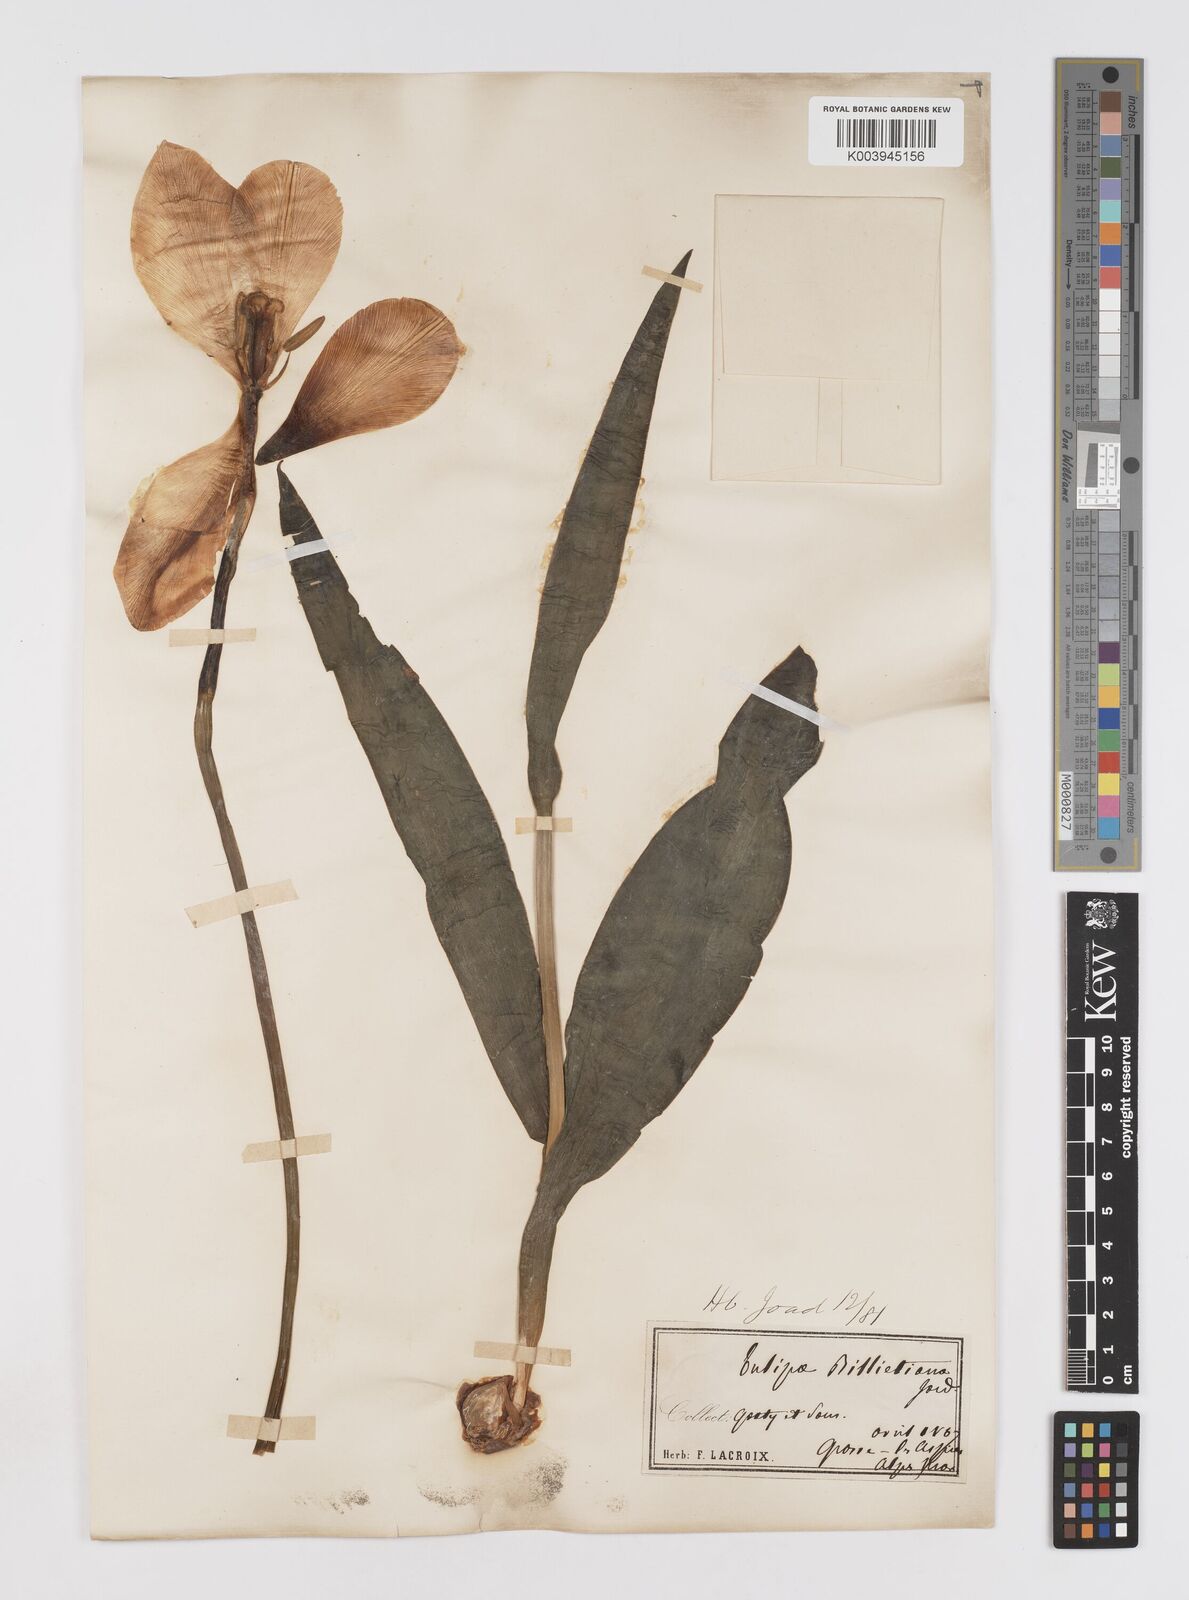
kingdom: Plantae
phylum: Tracheophyta
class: Liliopsida
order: Liliales
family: Liliaceae
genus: Tulipa
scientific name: Tulipa gesneriana
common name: Garden tulip
